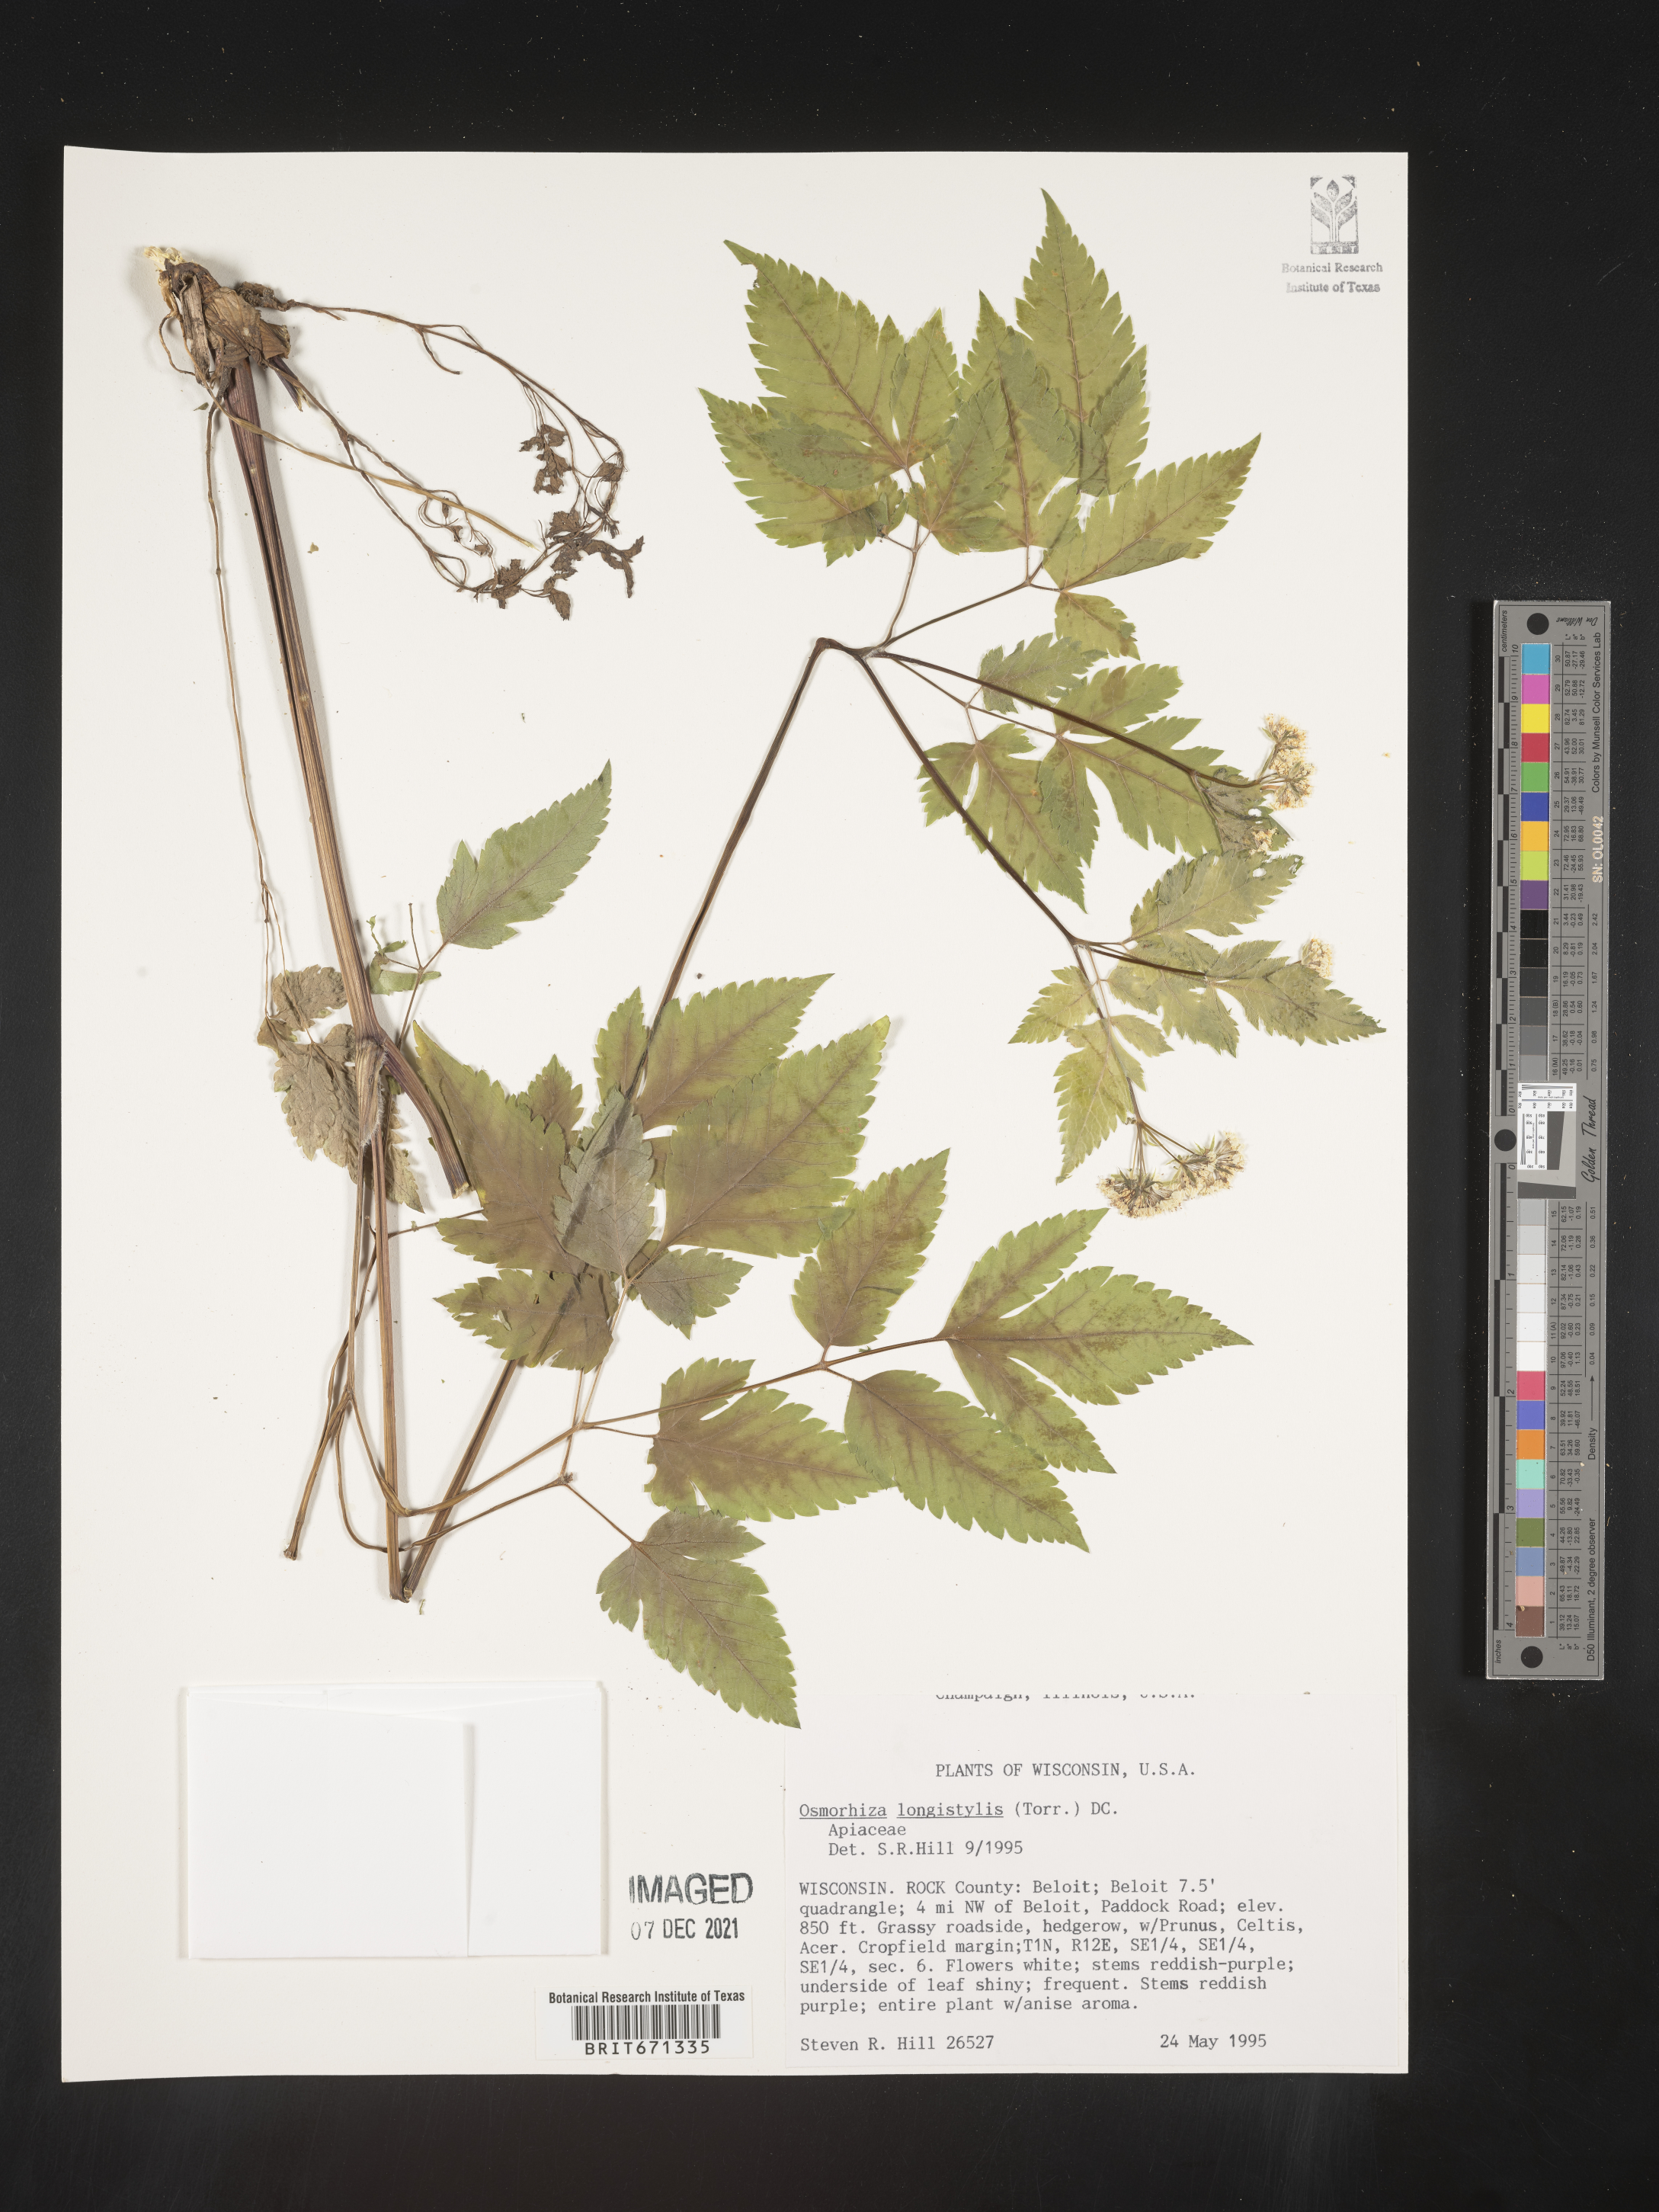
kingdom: Plantae
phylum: Tracheophyta
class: Magnoliopsida
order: Apiales
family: Apiaceae
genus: Osmorhiza
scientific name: Osmorhiza longistylis
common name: Smooth sweet cicely
